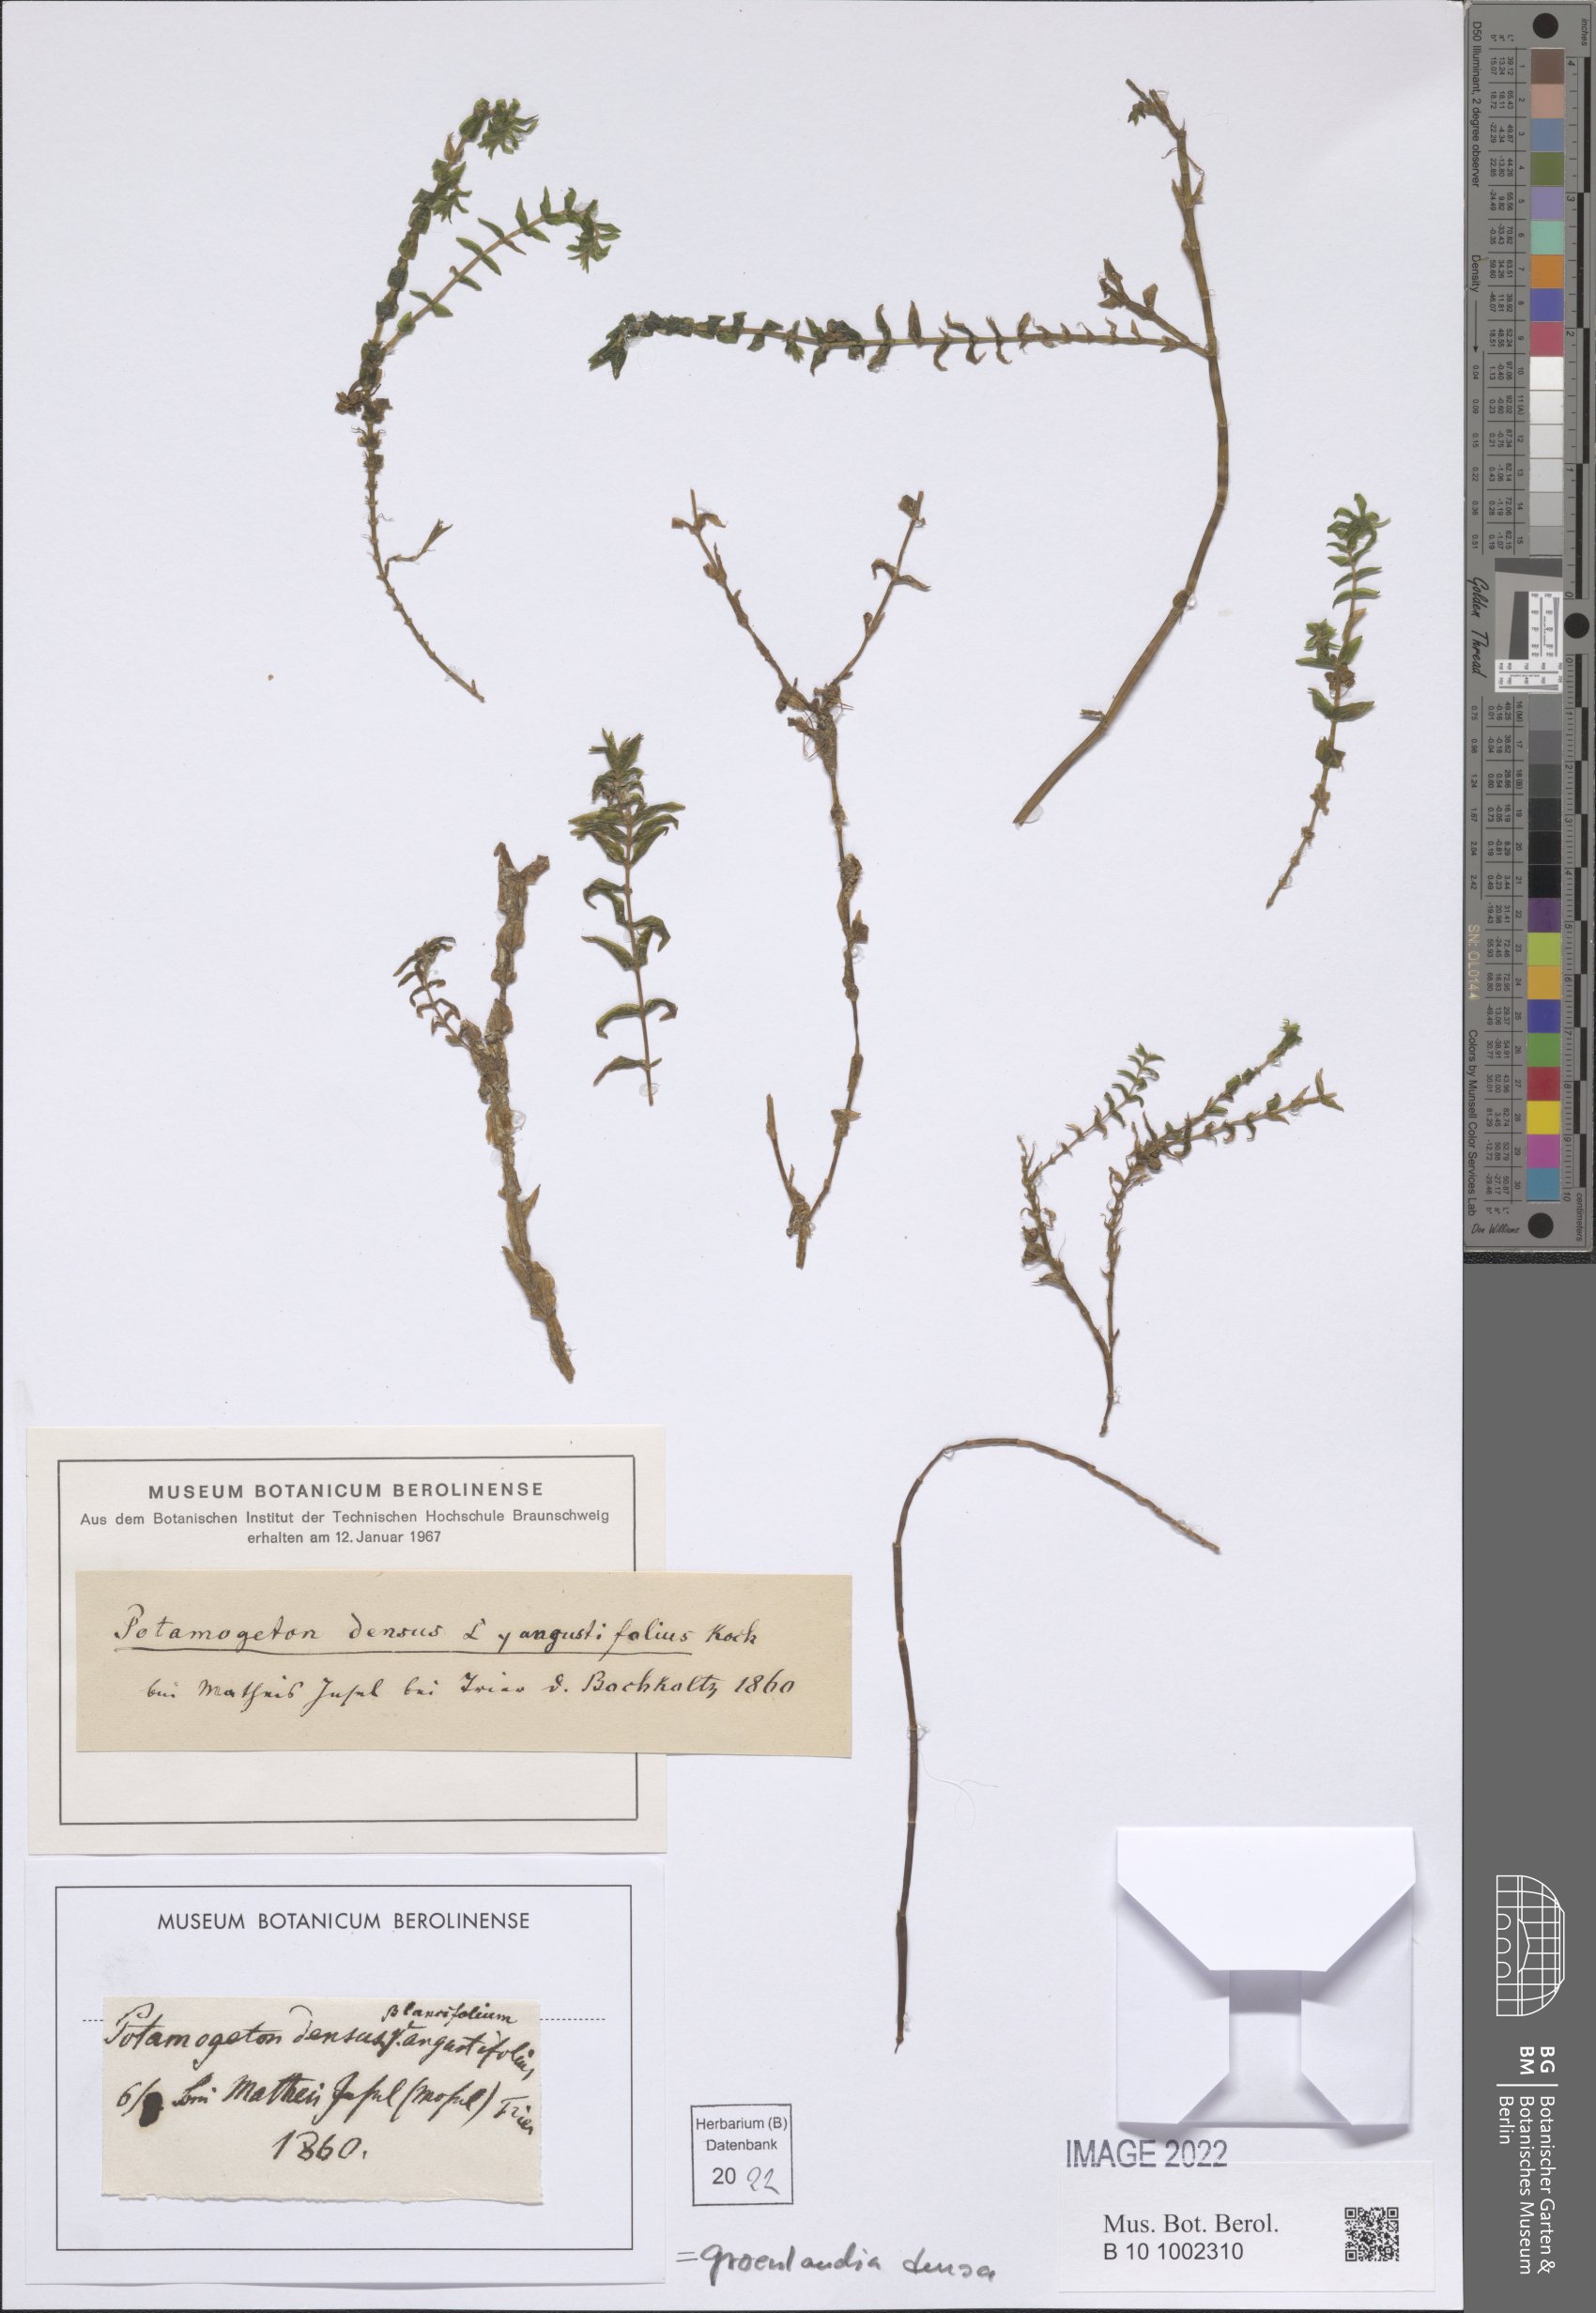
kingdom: Plantae
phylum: Tracheophyta
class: Liliopsida
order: Alismatales
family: Potamogetonaceae
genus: Groenlandia
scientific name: Groenlandia densa
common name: Opposite-leaved pondweed
